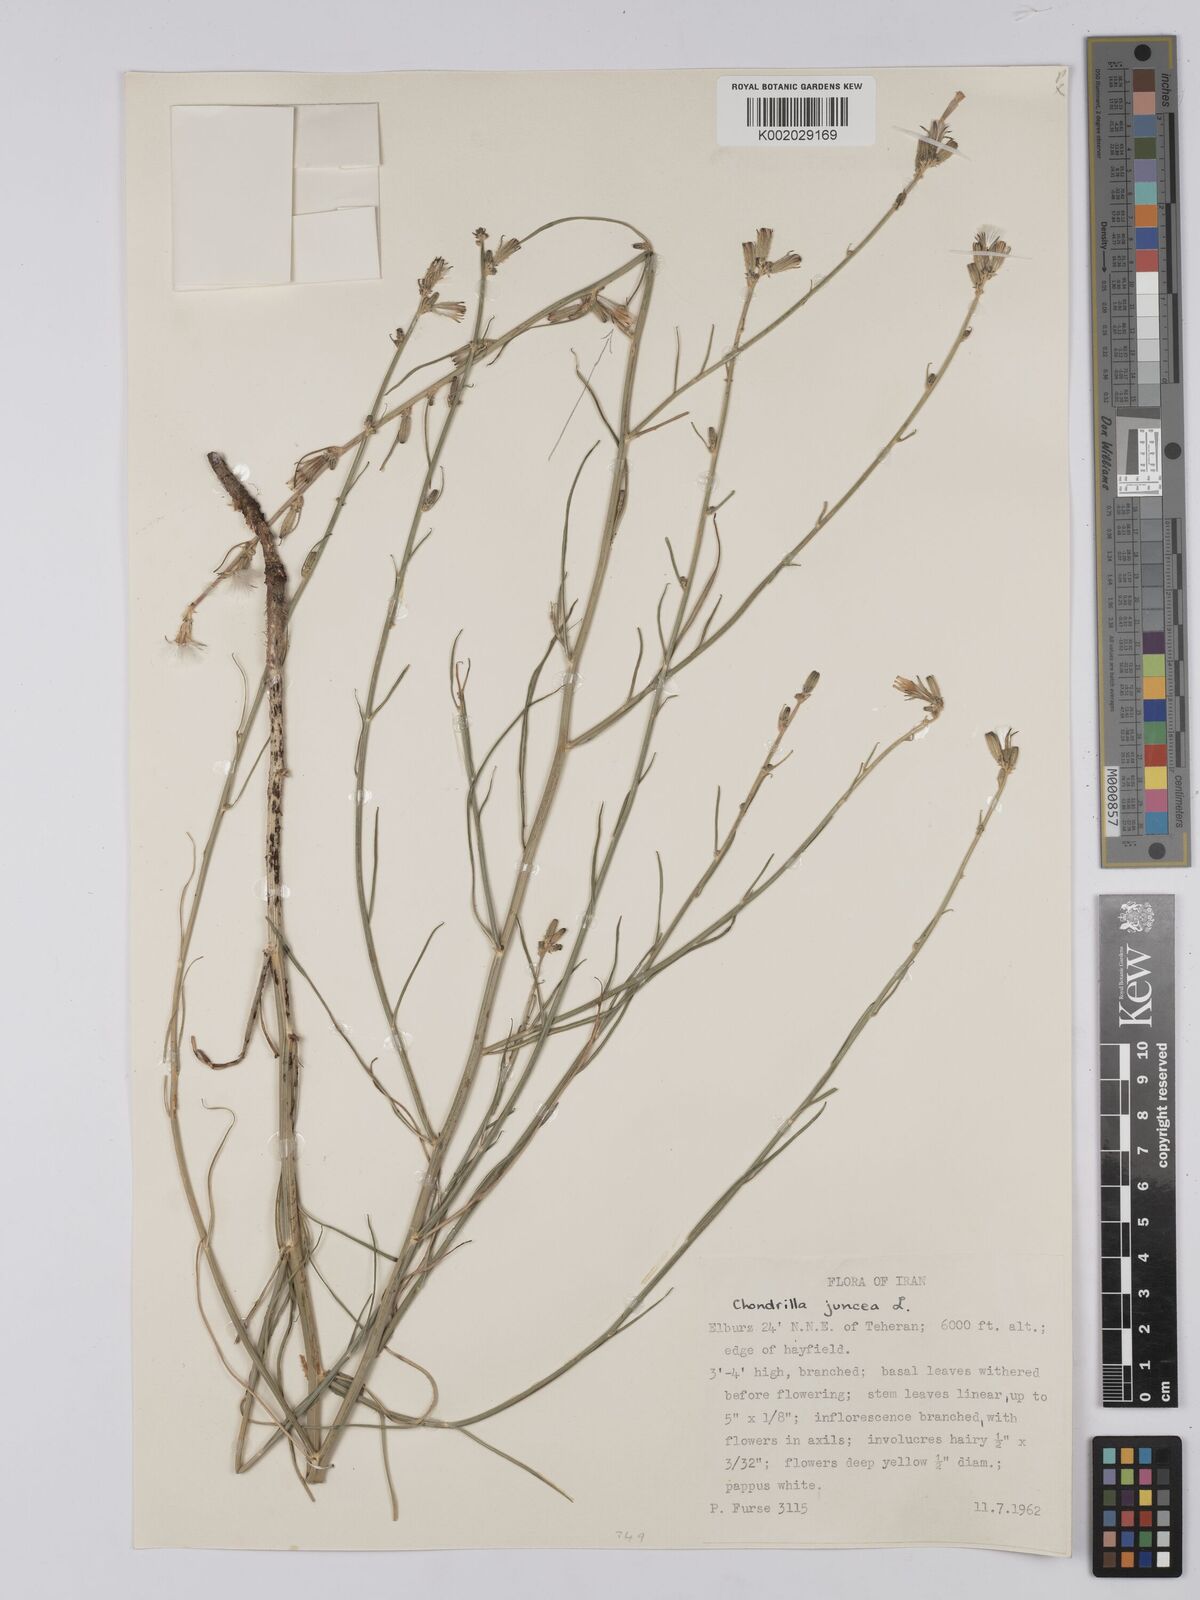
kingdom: Plantae
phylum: Tracheophyta
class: Magnoliopsida
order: Asterales
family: Asteraceae
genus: Chondrilla
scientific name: Chondrilla juncea
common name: Skeleton weed
